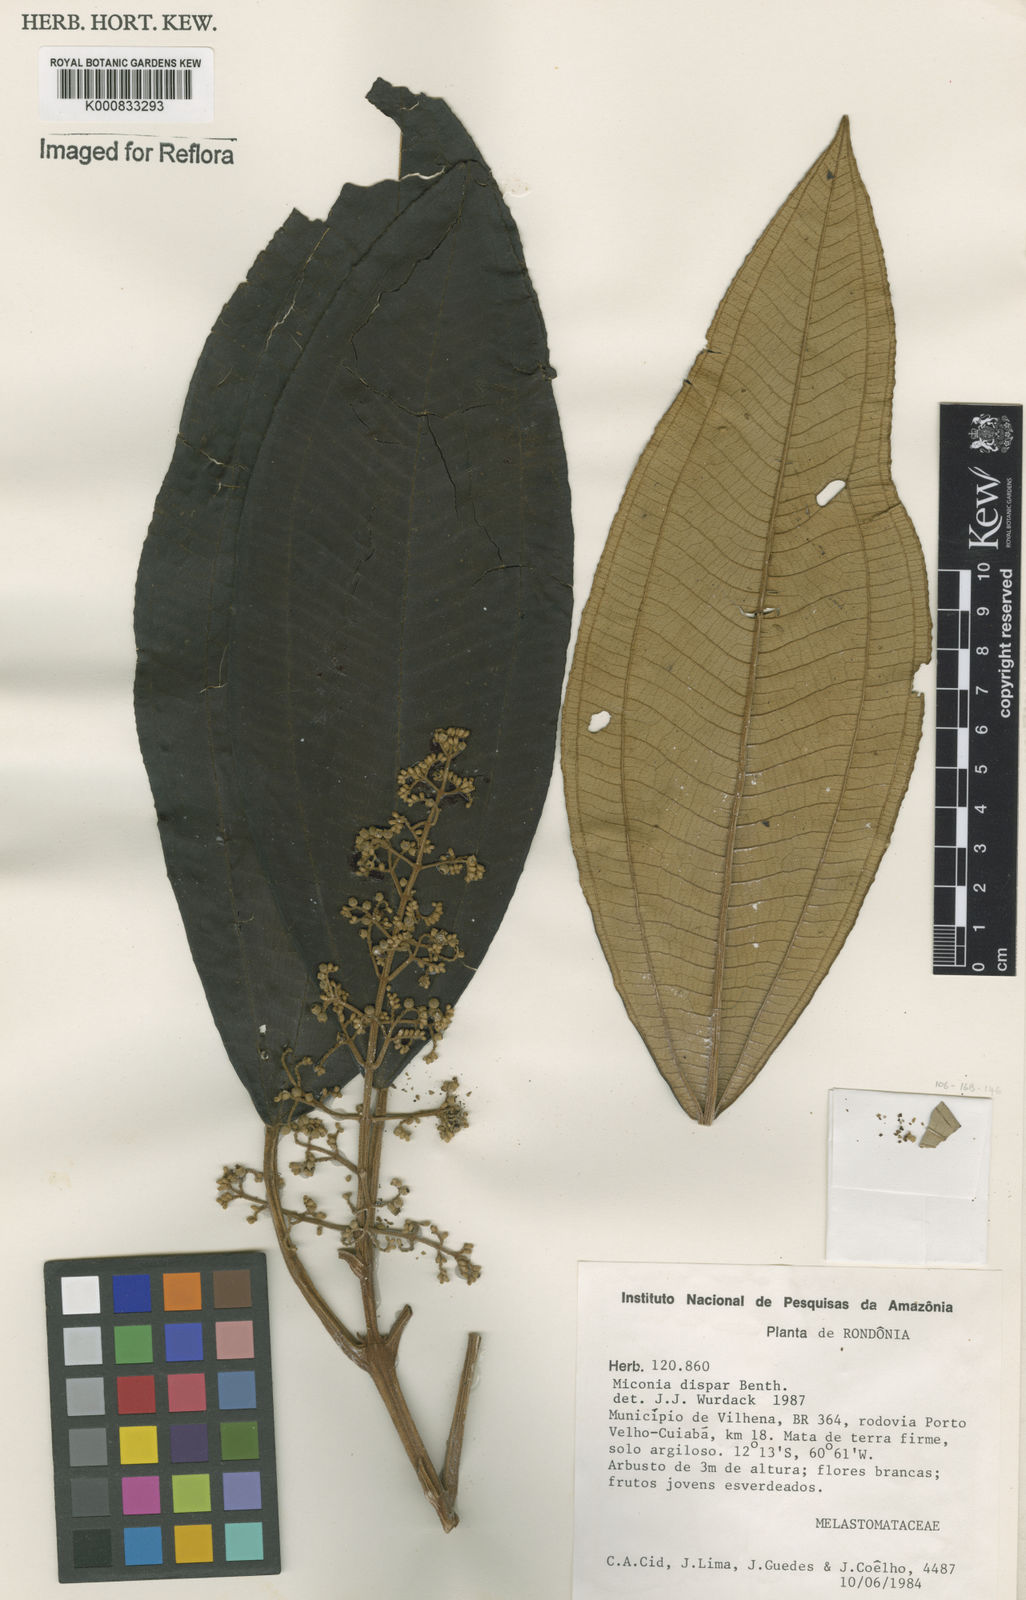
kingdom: Plantae
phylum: Tracheophyta
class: Magnoliopsida
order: Myrtales
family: Melastomataceae
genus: Miconia
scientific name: Miconia dispar
